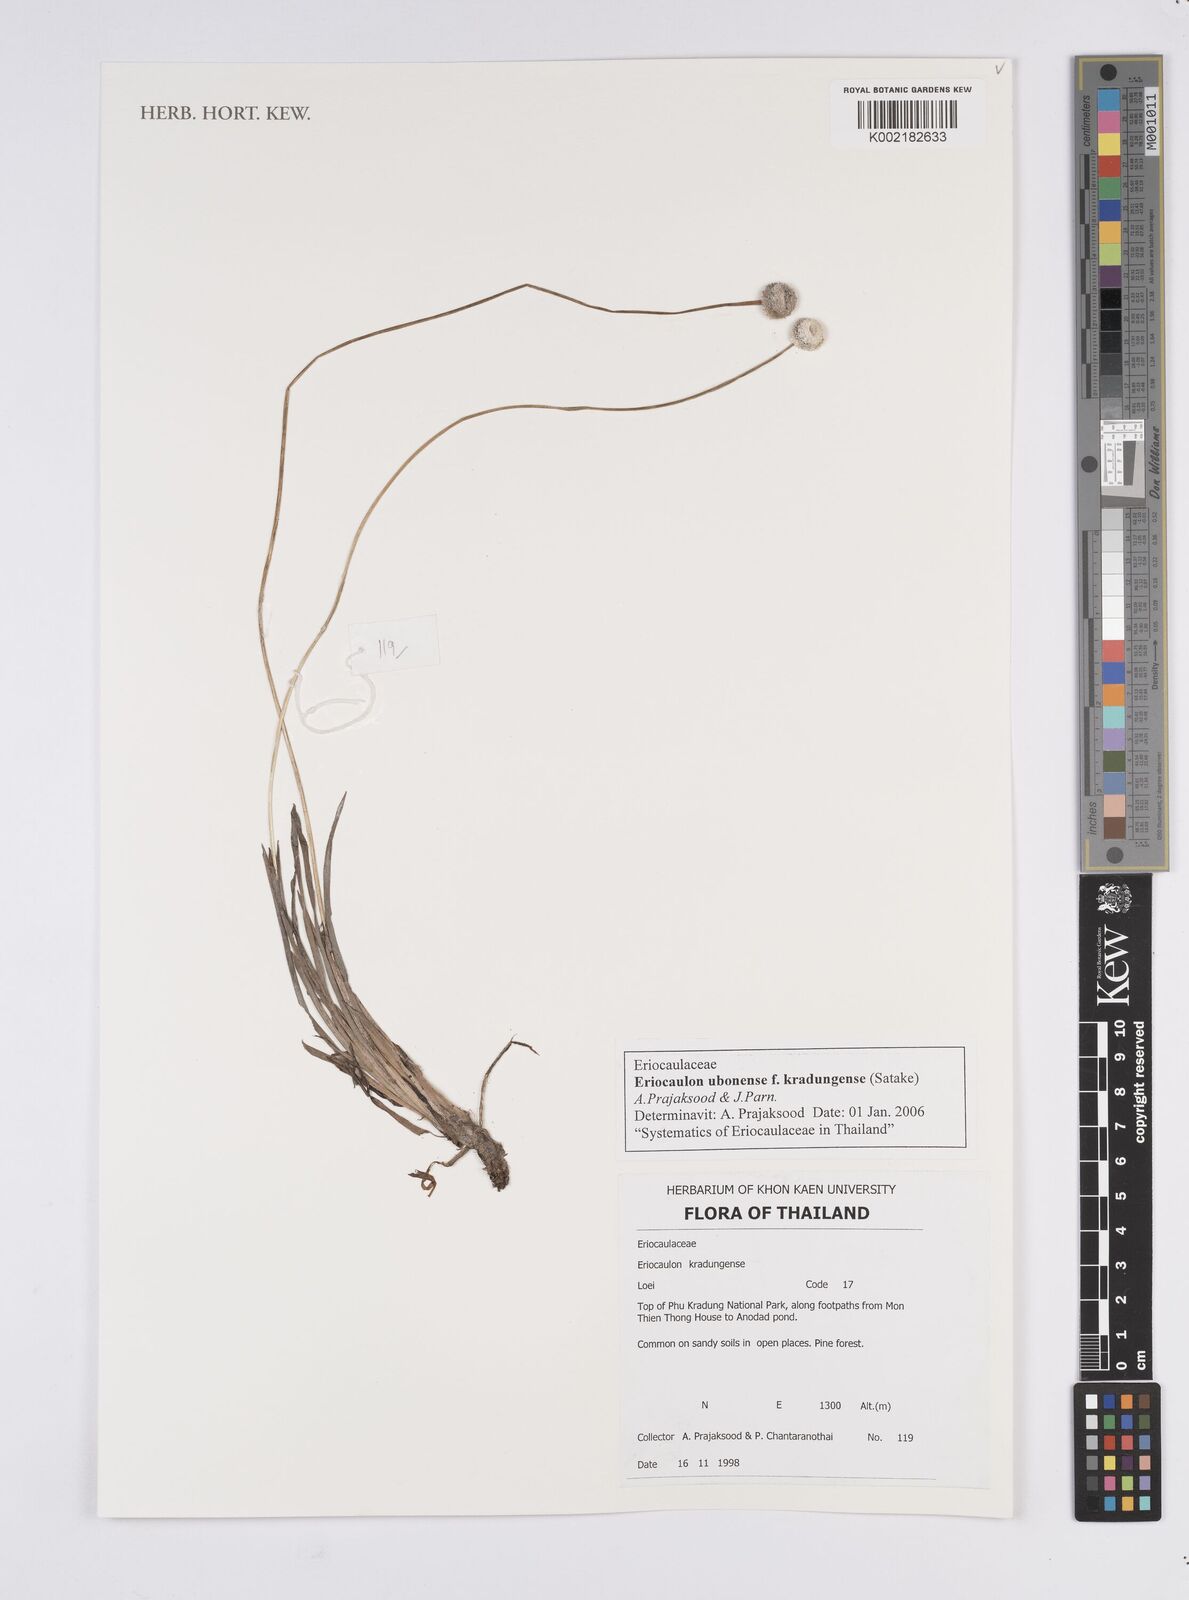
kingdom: Plantae
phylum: Tracheophyta
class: Liliopsida
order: Poales
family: Eriocaulaceae
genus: Eriocaulon
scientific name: Eriocaulon ubonense
